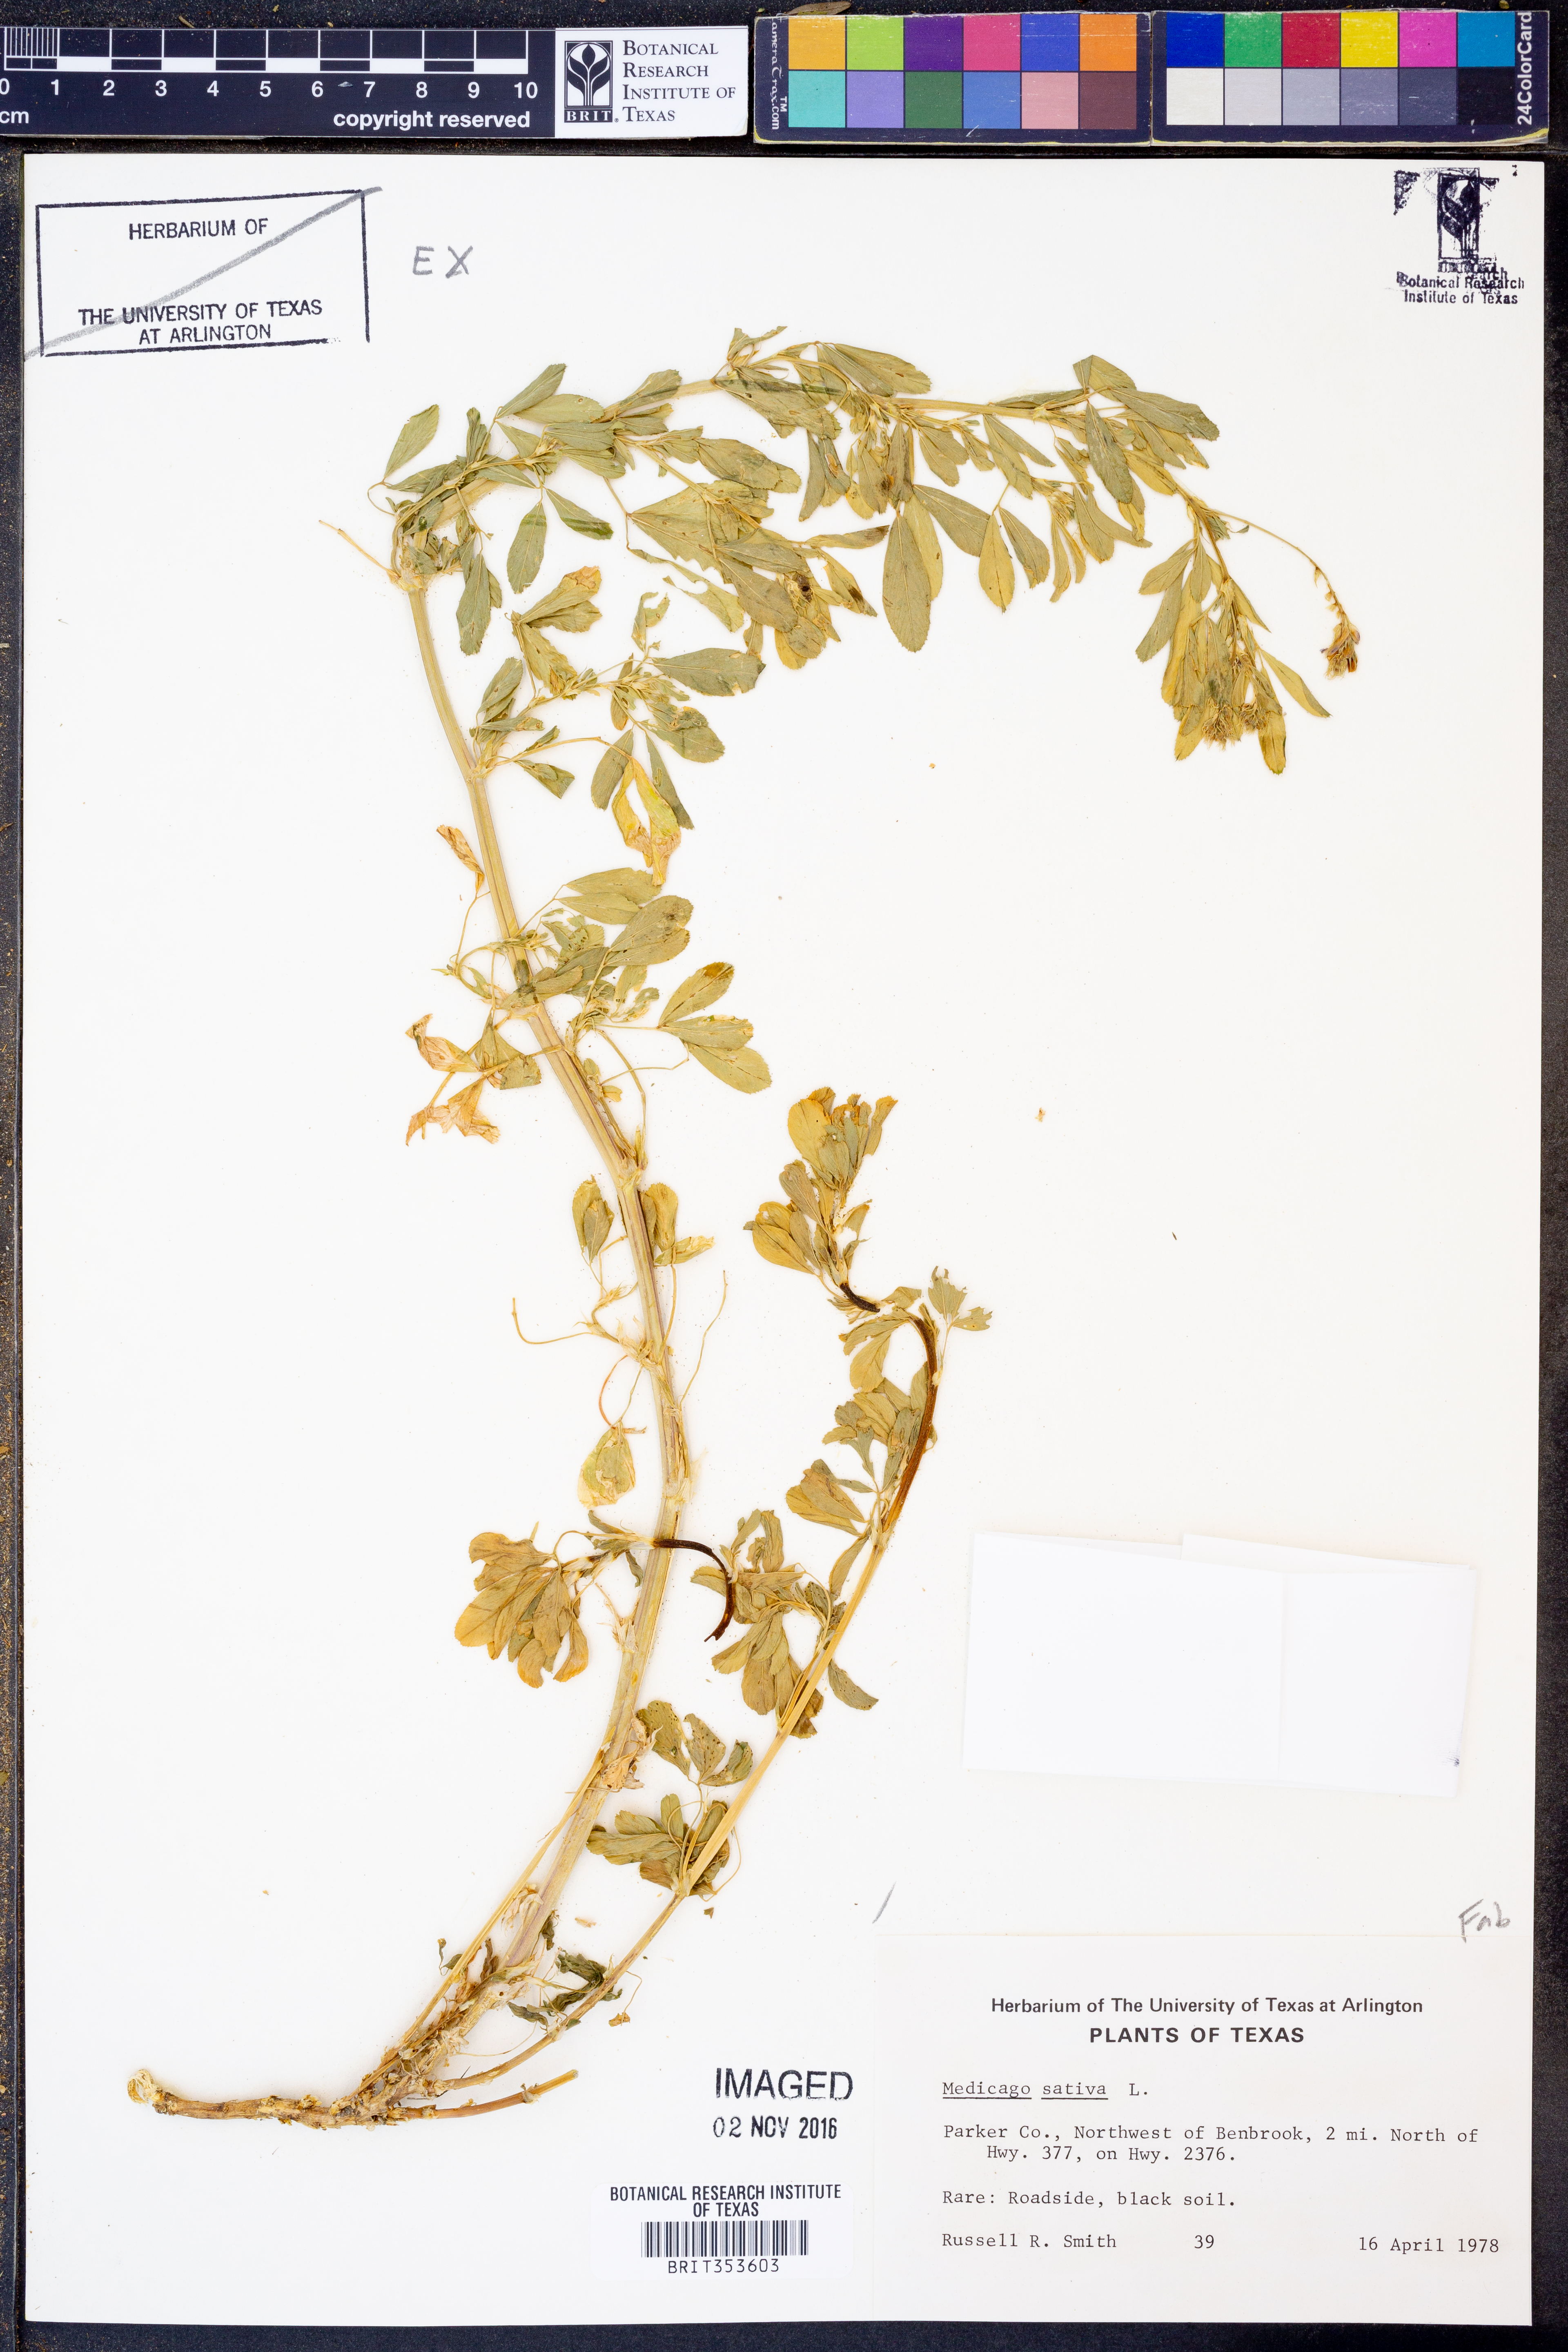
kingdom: Plantae
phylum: Tracheophyta
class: Magnoliopsida
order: Fabales
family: Fabaceae
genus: Medicago
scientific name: Medicago sativa
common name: Alfalfa
